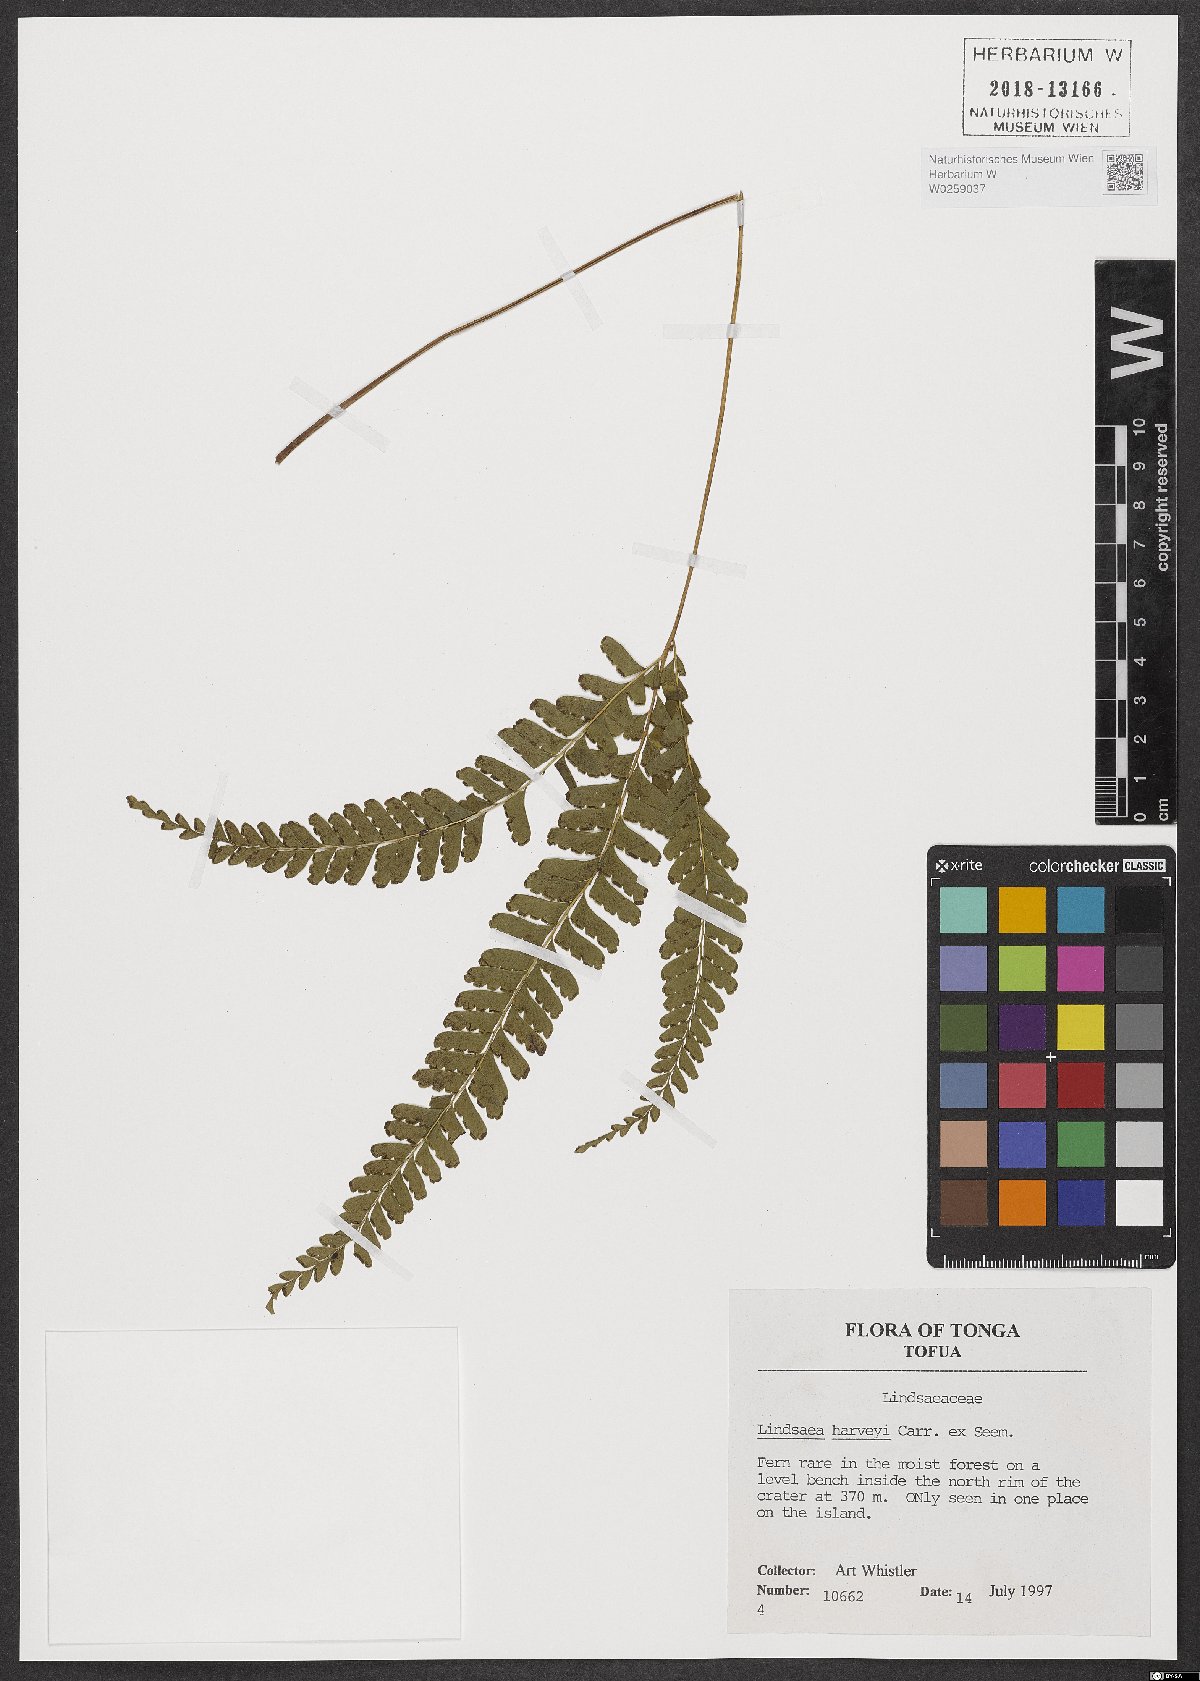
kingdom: Plantae
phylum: Tracheophyta
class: Polypodiopsida
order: Polypodiales
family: Lindsaeaceae
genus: Lindsaea
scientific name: Lindsaea harveyi
